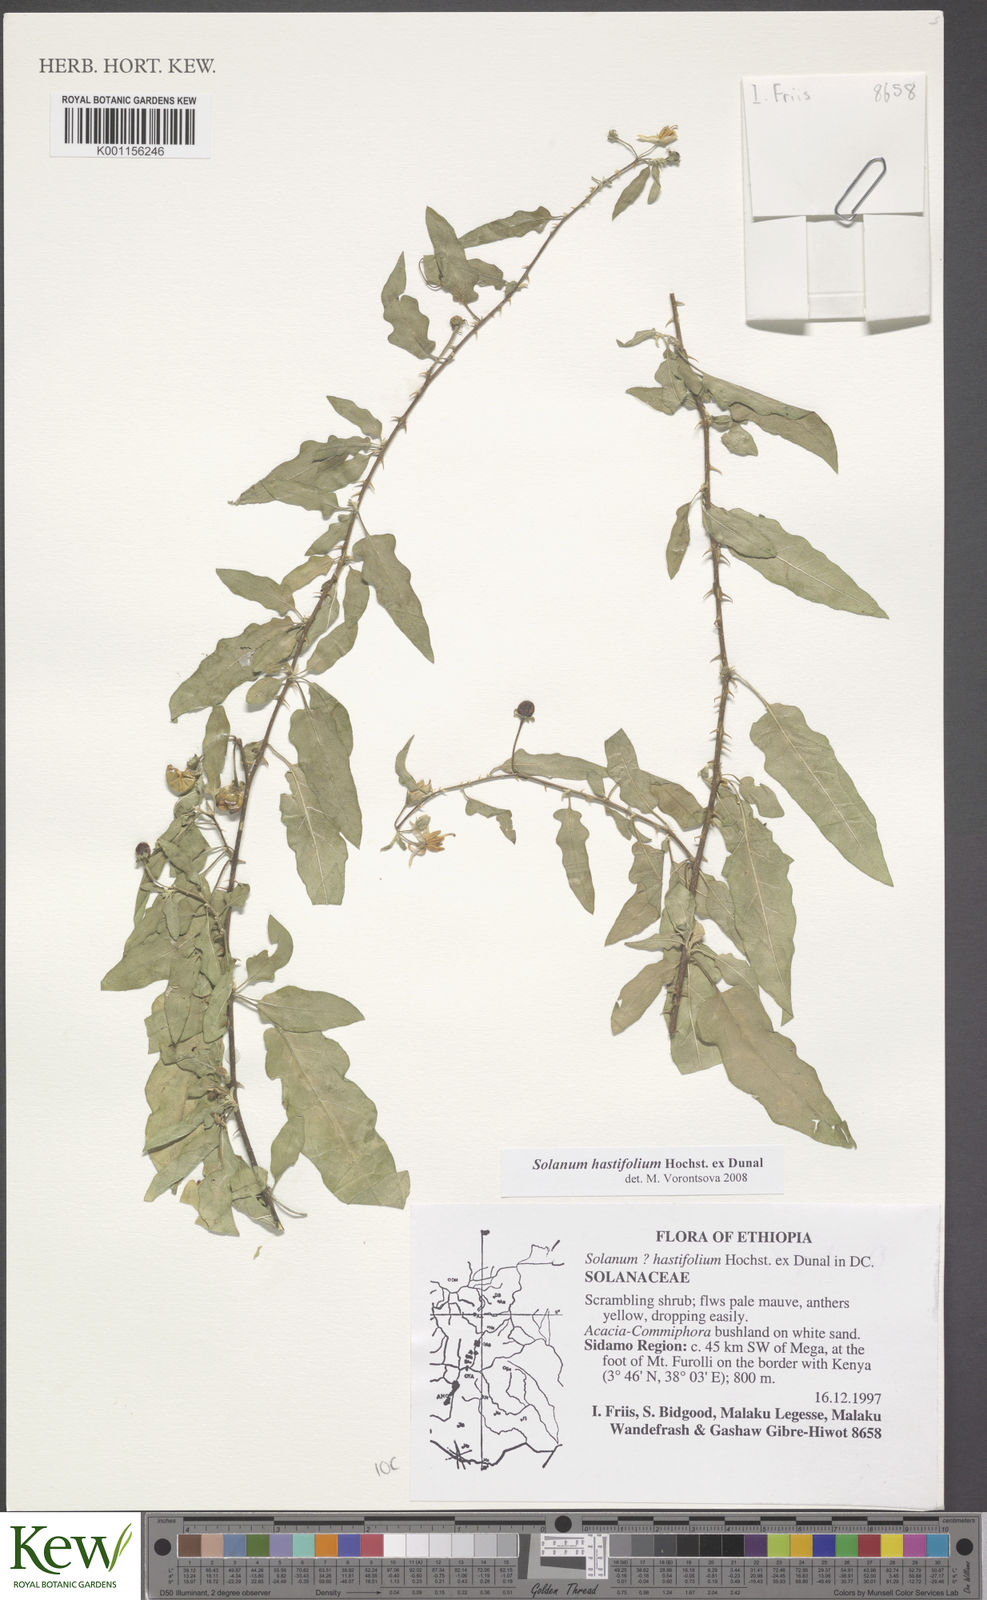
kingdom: Plantae
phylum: Tracheophyta
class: Magnoliopsida
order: Solanales
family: Solanaceae
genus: Solanum
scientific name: Solanum hastifolium
